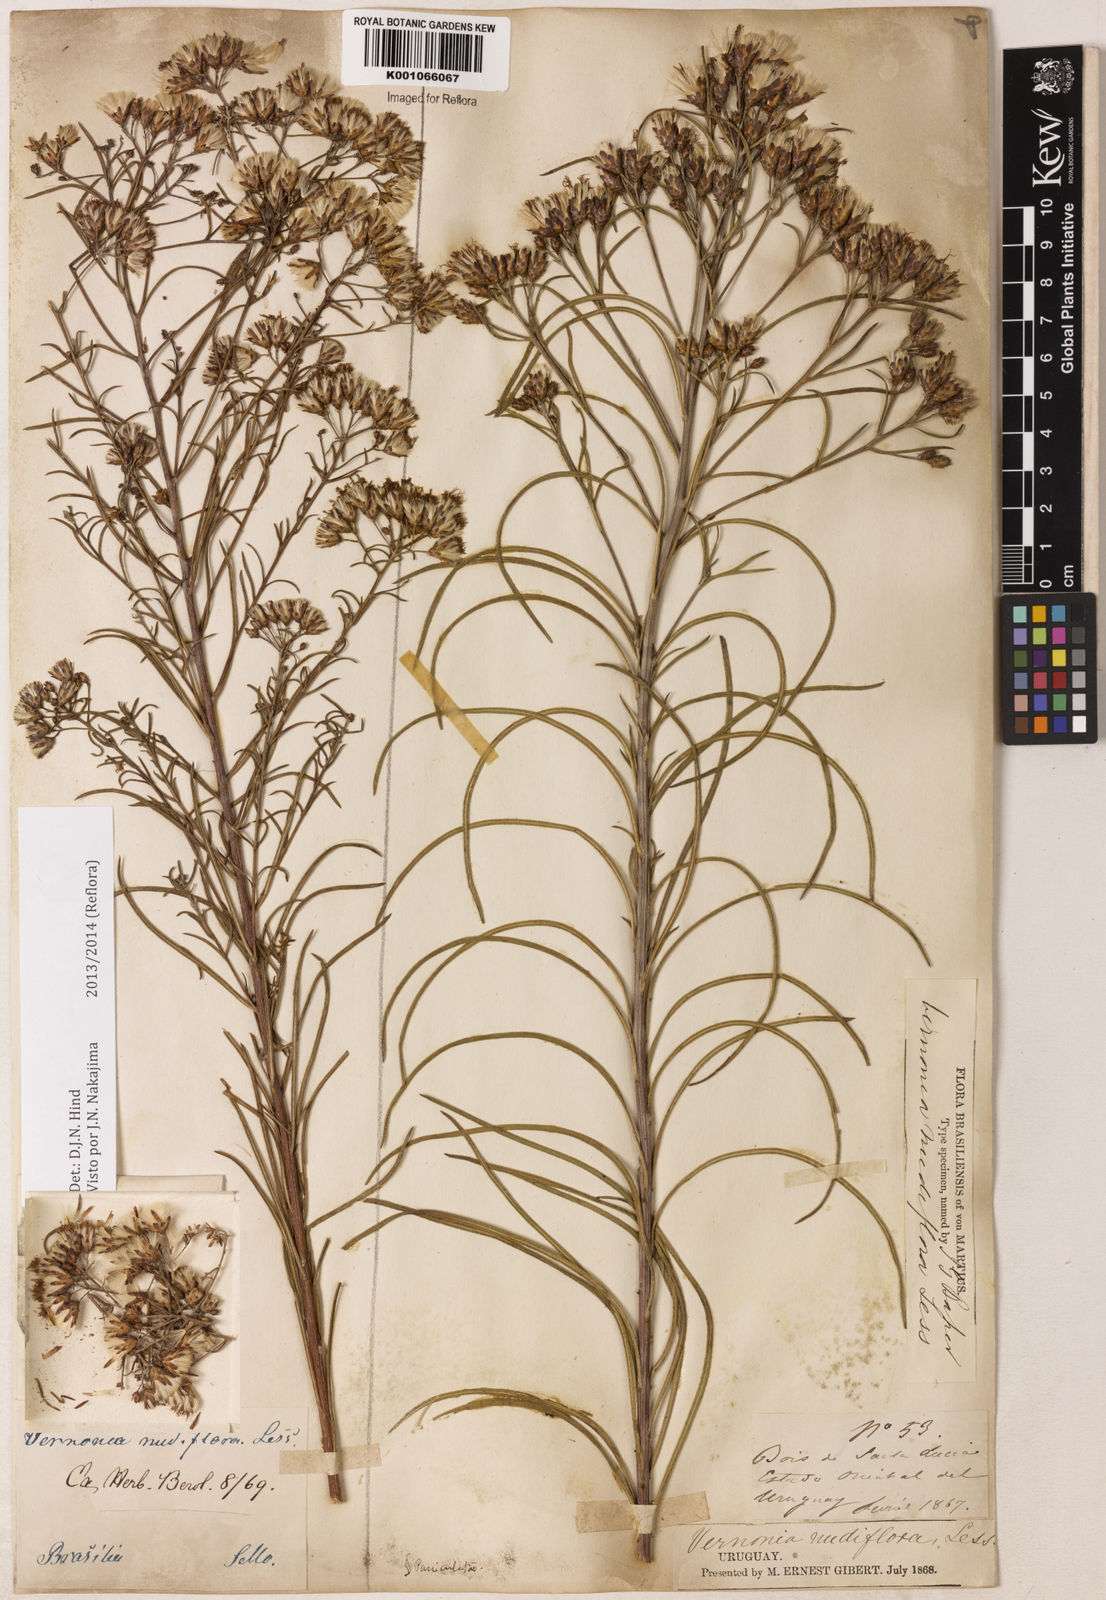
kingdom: Plantae
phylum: Tracheophyta
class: Magnoliopsida
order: Asterales
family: Asteraceae
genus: Vernonanthura
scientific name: Vernonanthura nudiflora
